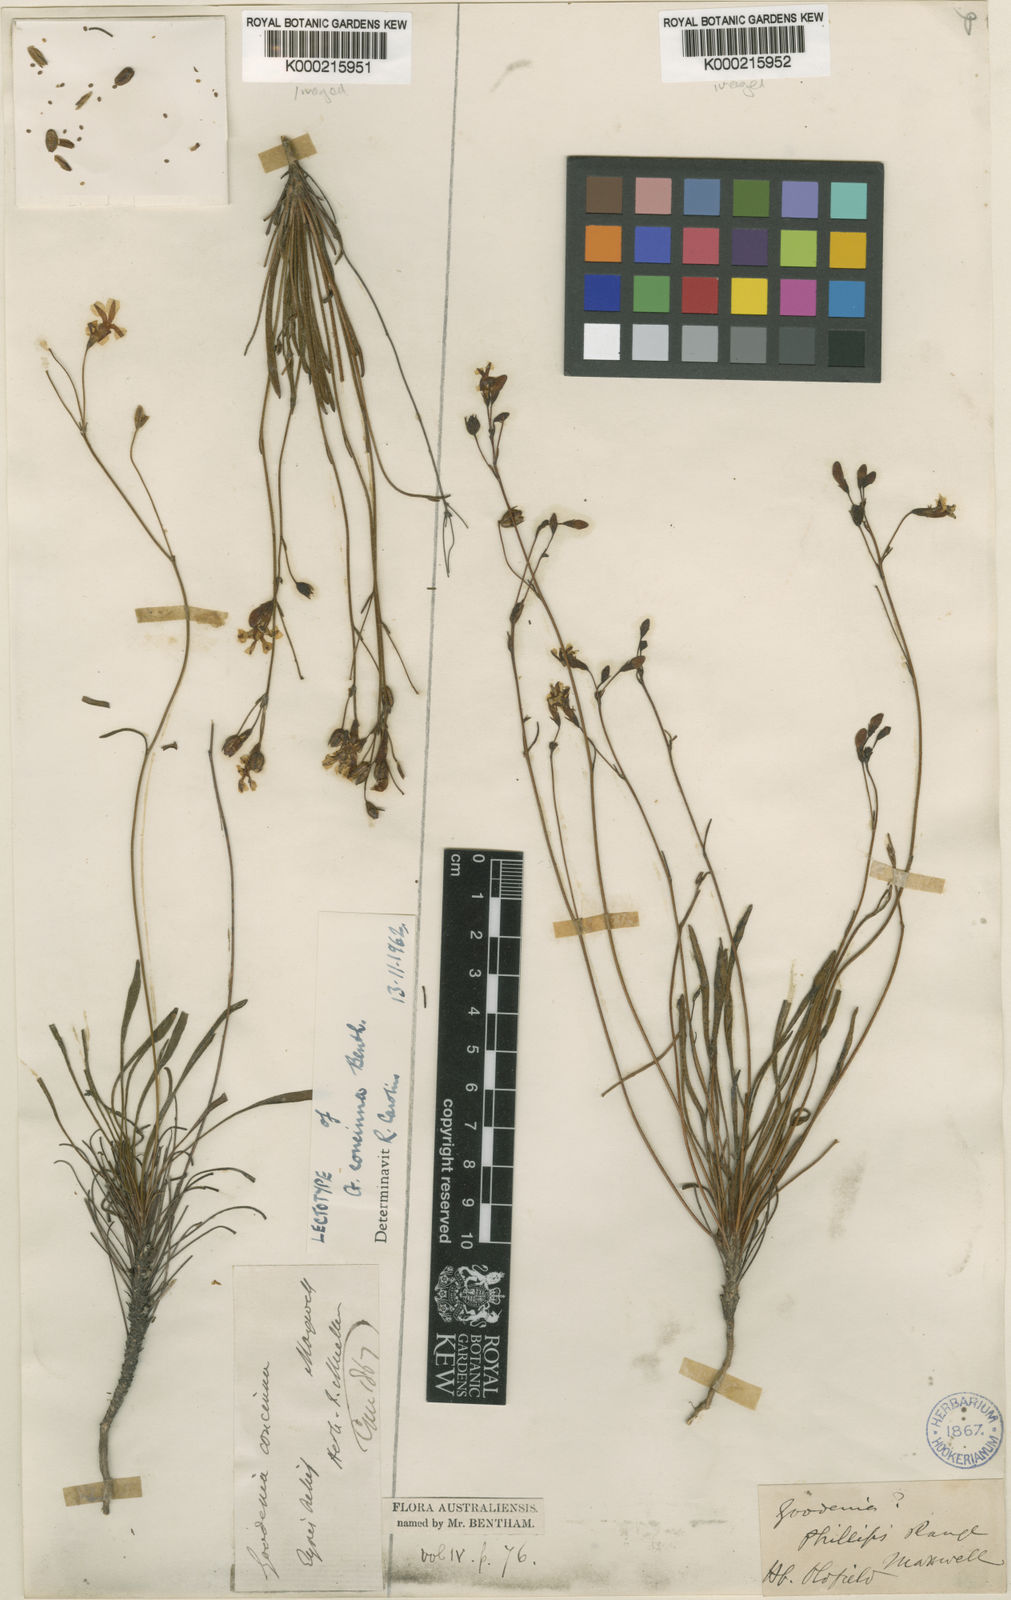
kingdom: Plantae
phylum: Tracheophyta
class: Magnoliopsida
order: Asterales
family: Goodeniaceae
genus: Goodenia
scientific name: Goodenia concinna
